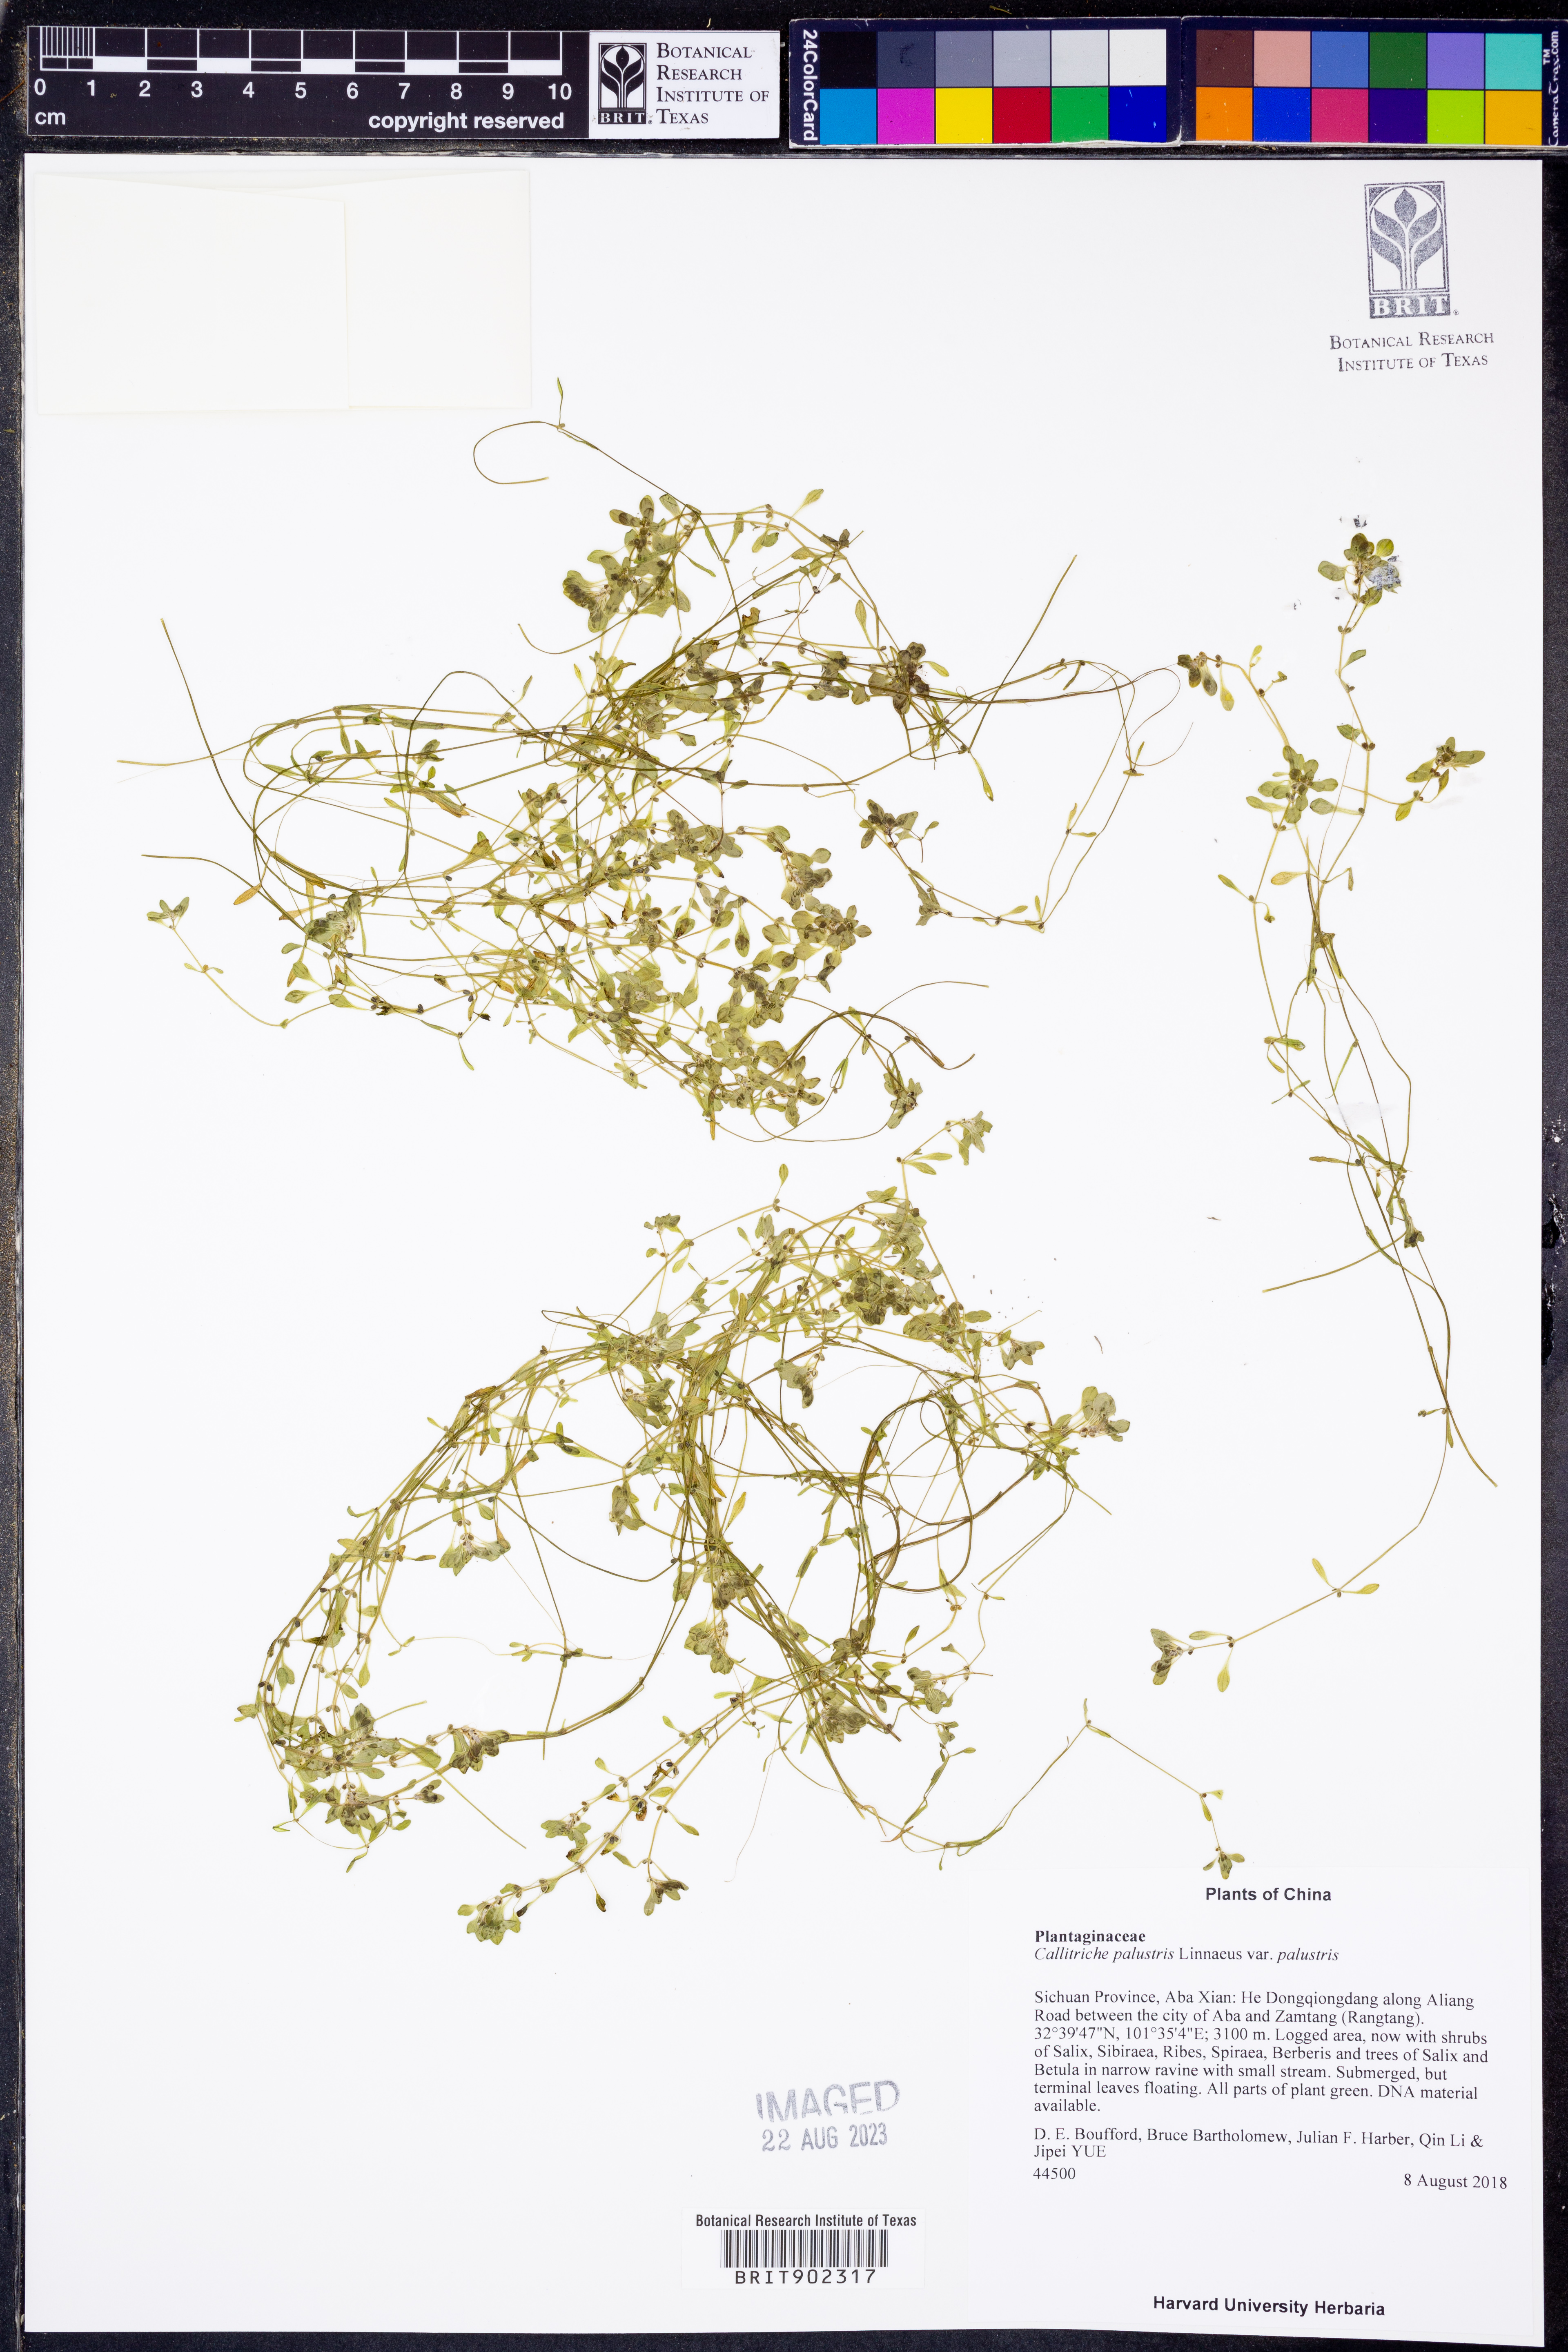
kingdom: Plantae
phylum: Tracheophyta
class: Magnoliopsida
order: Lamiales
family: Plantaginaceae
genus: Callitriche
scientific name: Callitriche palustris
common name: Spring water-starwort
